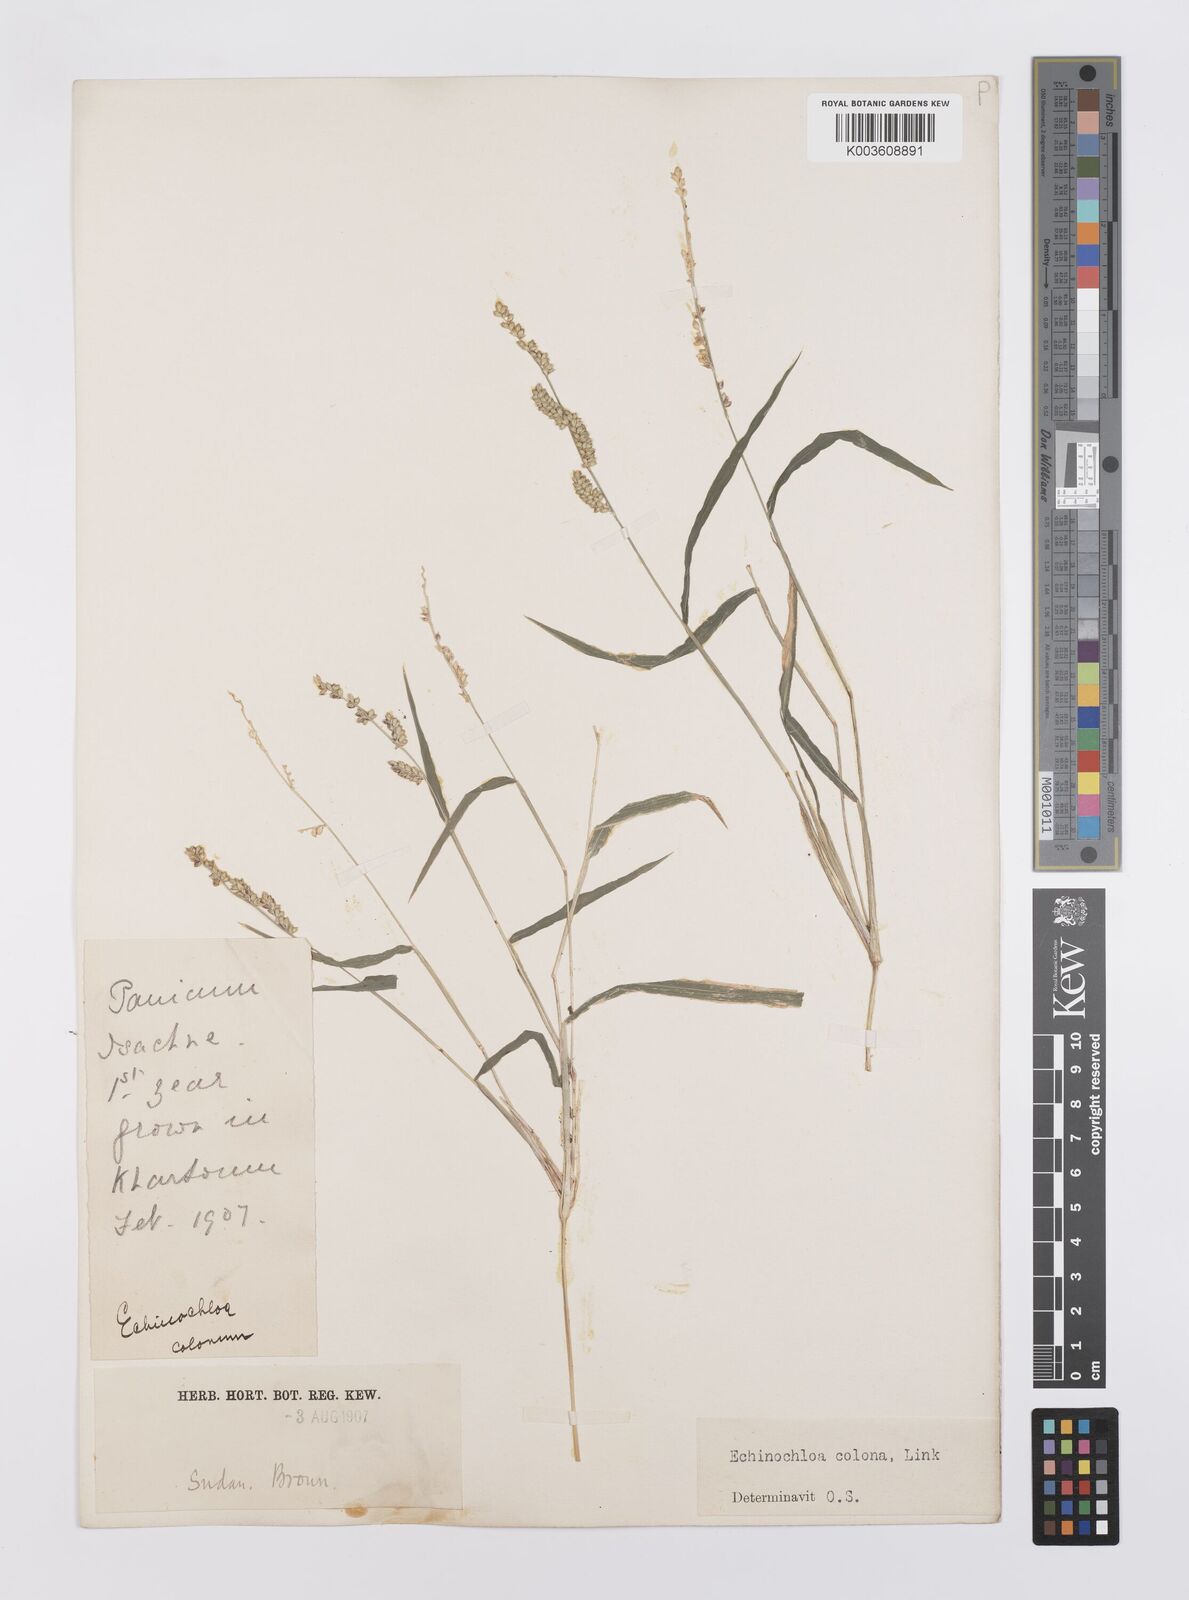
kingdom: Plantae
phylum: Tracheophyta
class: Liliopsida
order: Poales
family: Poaceae
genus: Echinochloa
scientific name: Echinochloa colonum
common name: Jungle rice
